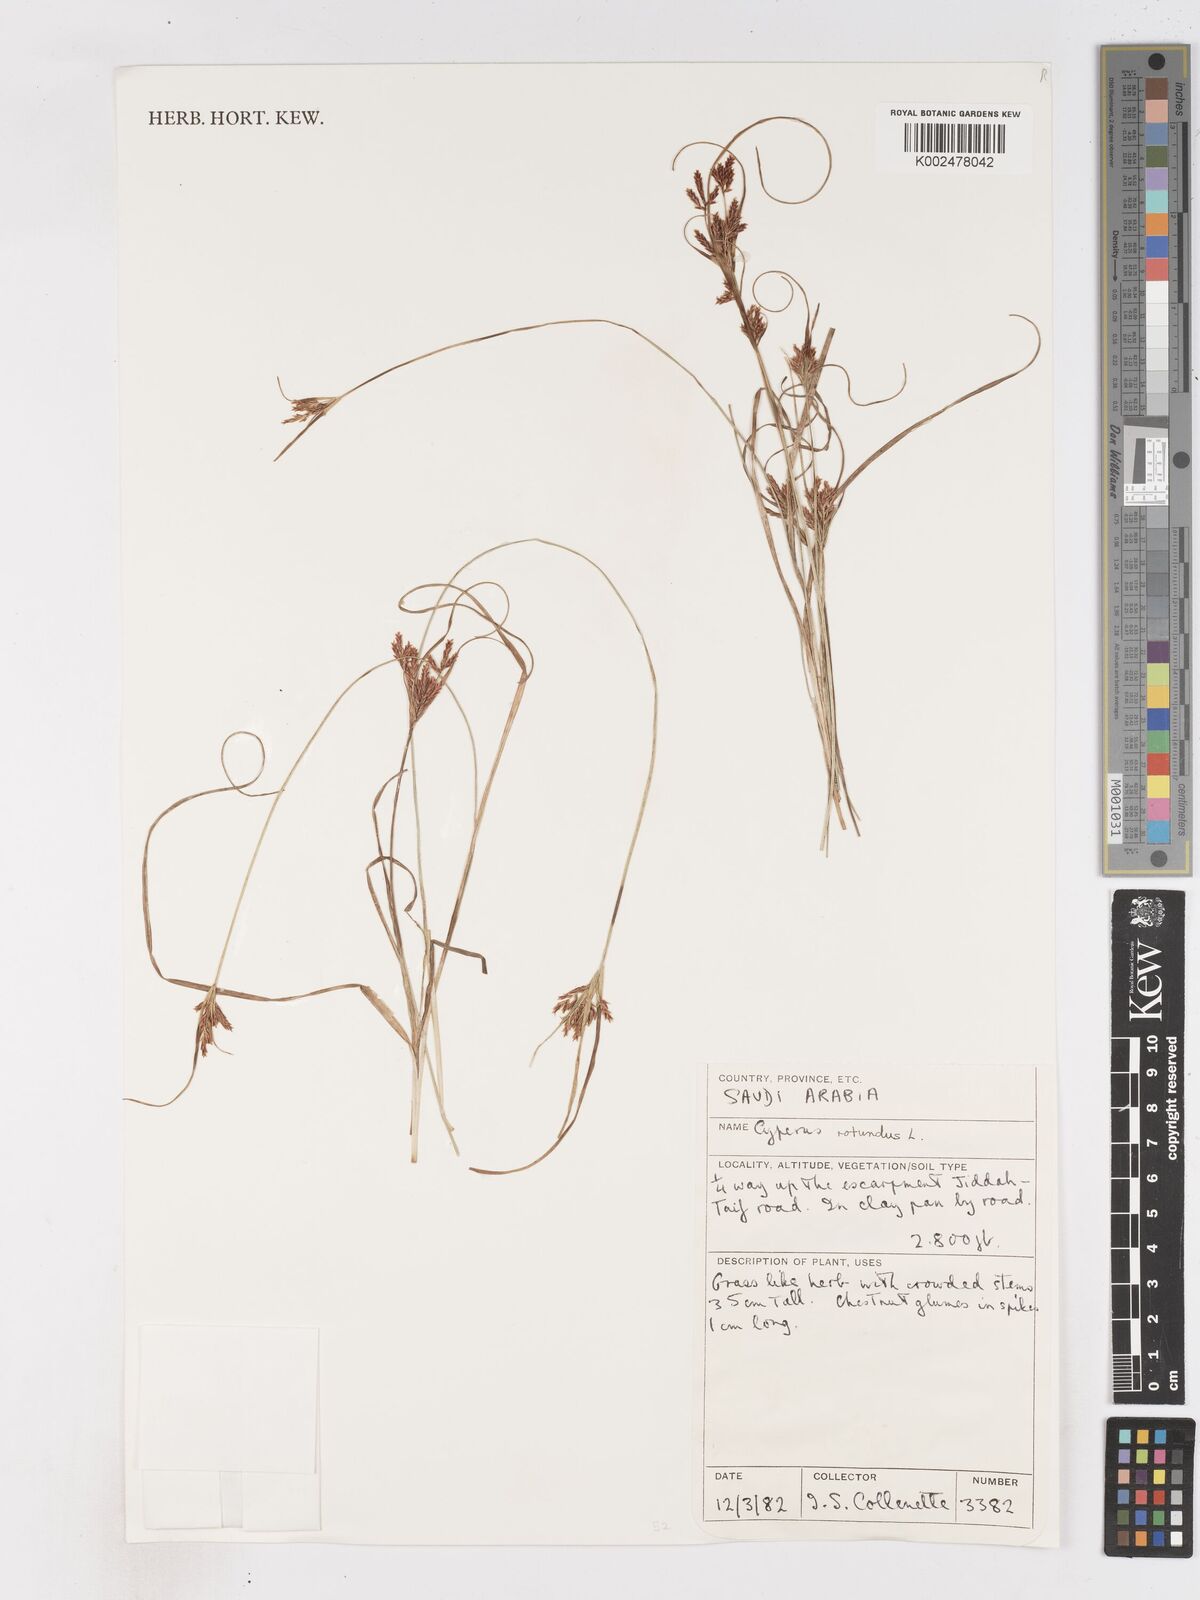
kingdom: Plantae
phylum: Tracheophyta
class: Liliopsida
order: Poales
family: Cyperaceae
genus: Cyperus
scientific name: Cyperus rotundus
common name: Nutgrass
